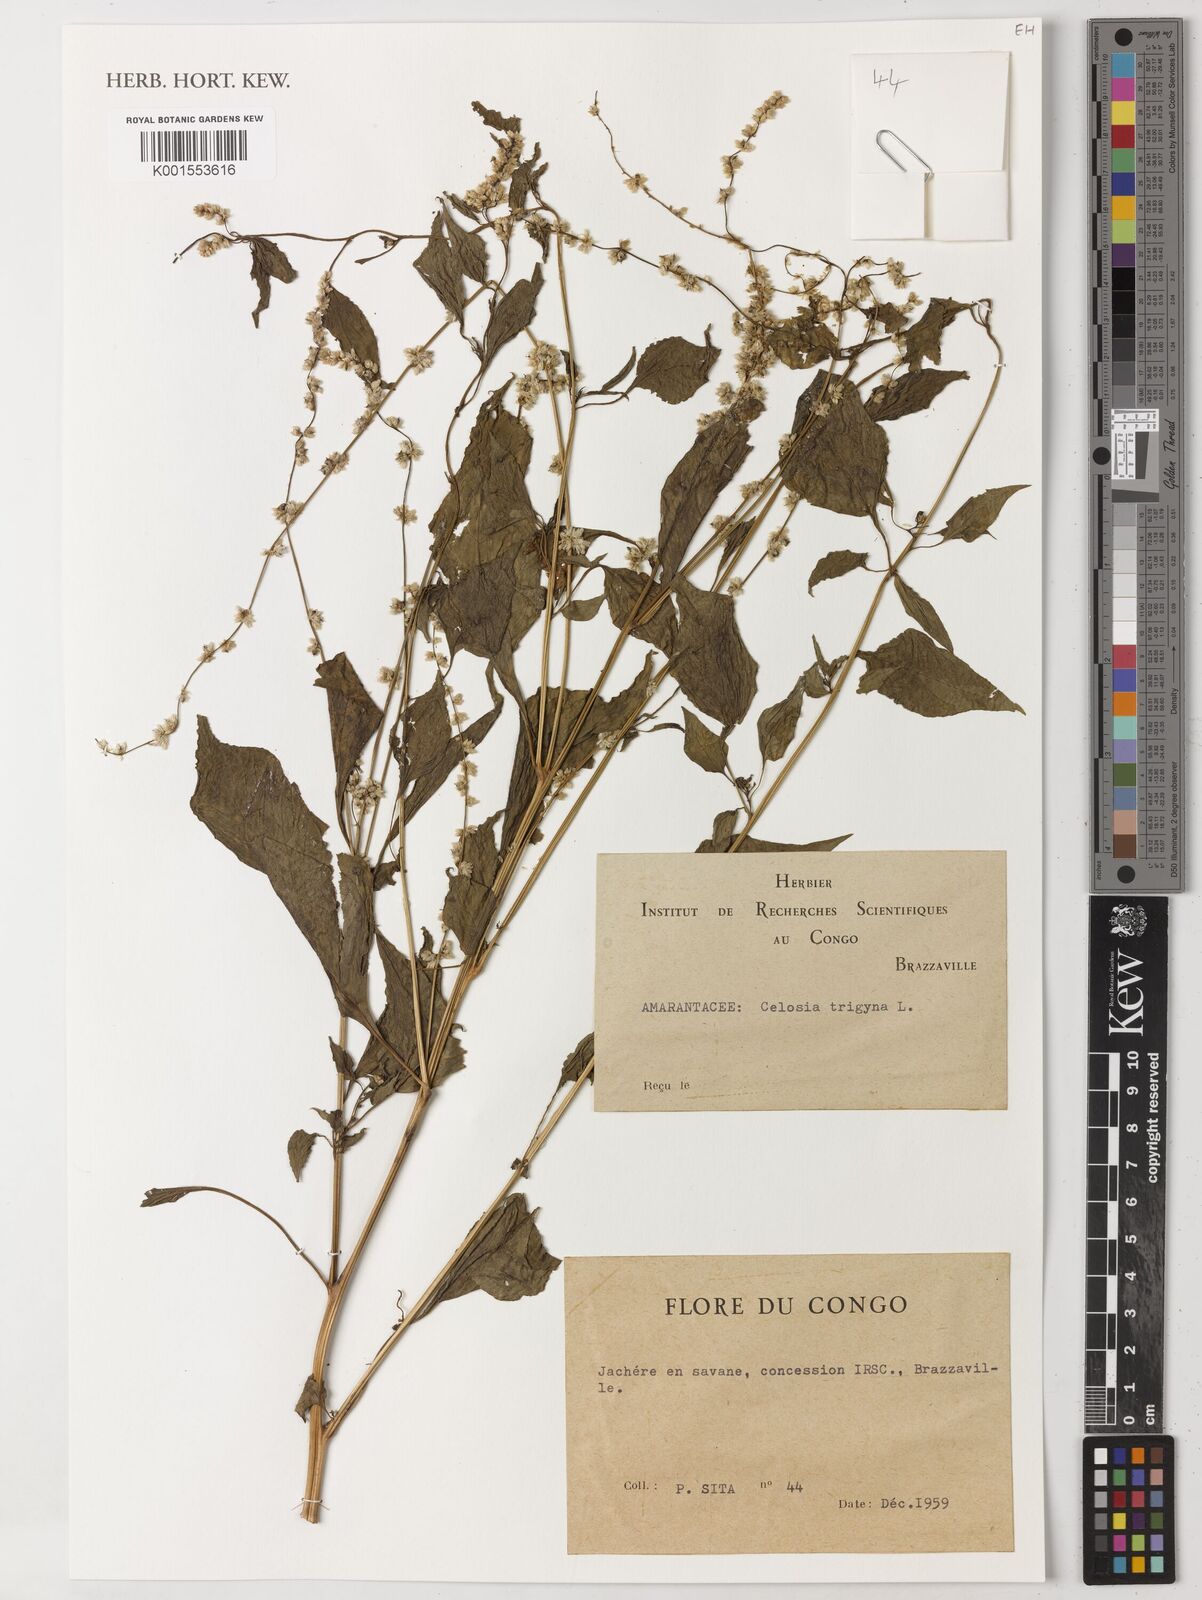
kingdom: Plantae
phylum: Tracheophyta
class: Magnoliopsida
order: Caryophyllales
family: Amaranthaceae
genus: Celosia
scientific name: Celosia trigyna
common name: Woolflower
